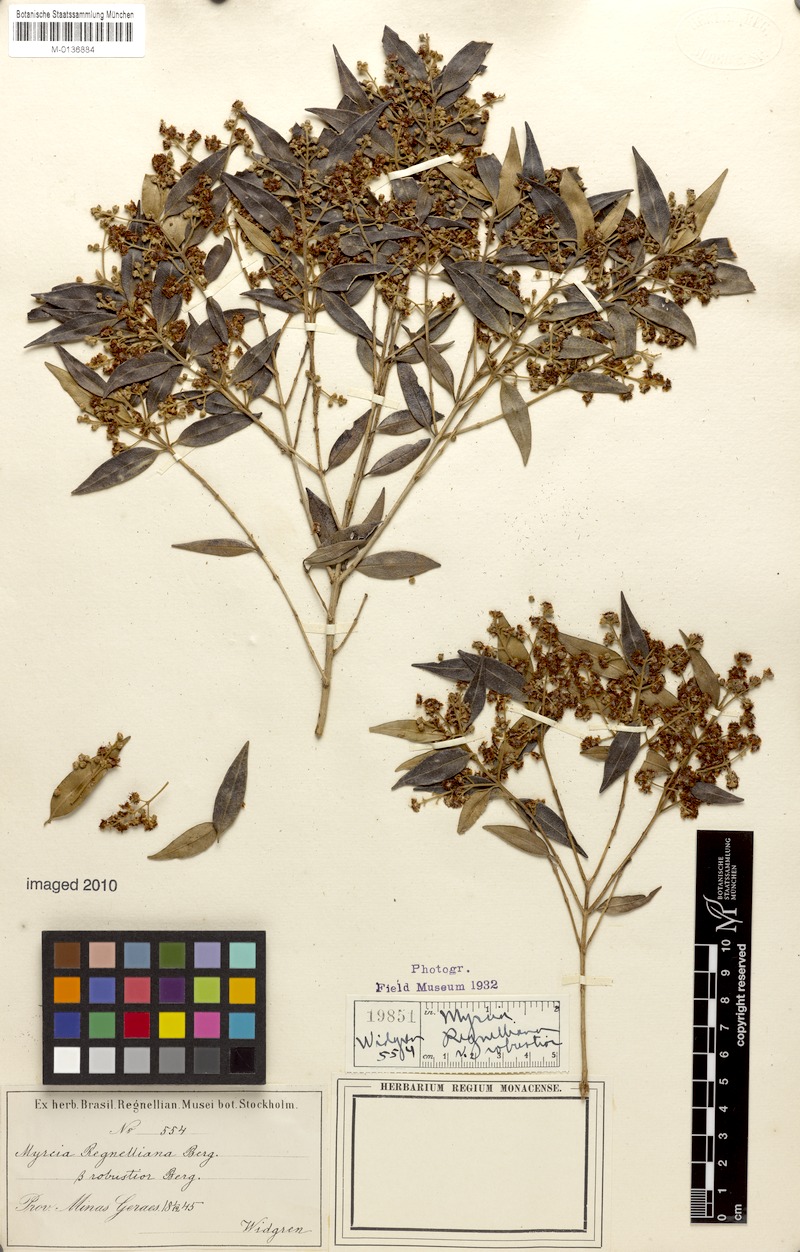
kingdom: Plantae
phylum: Tracheophyta
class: Magnoliopsida
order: Myrtales
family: Myrtaceae
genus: Myrcia
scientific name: Myrcia regnelliana
